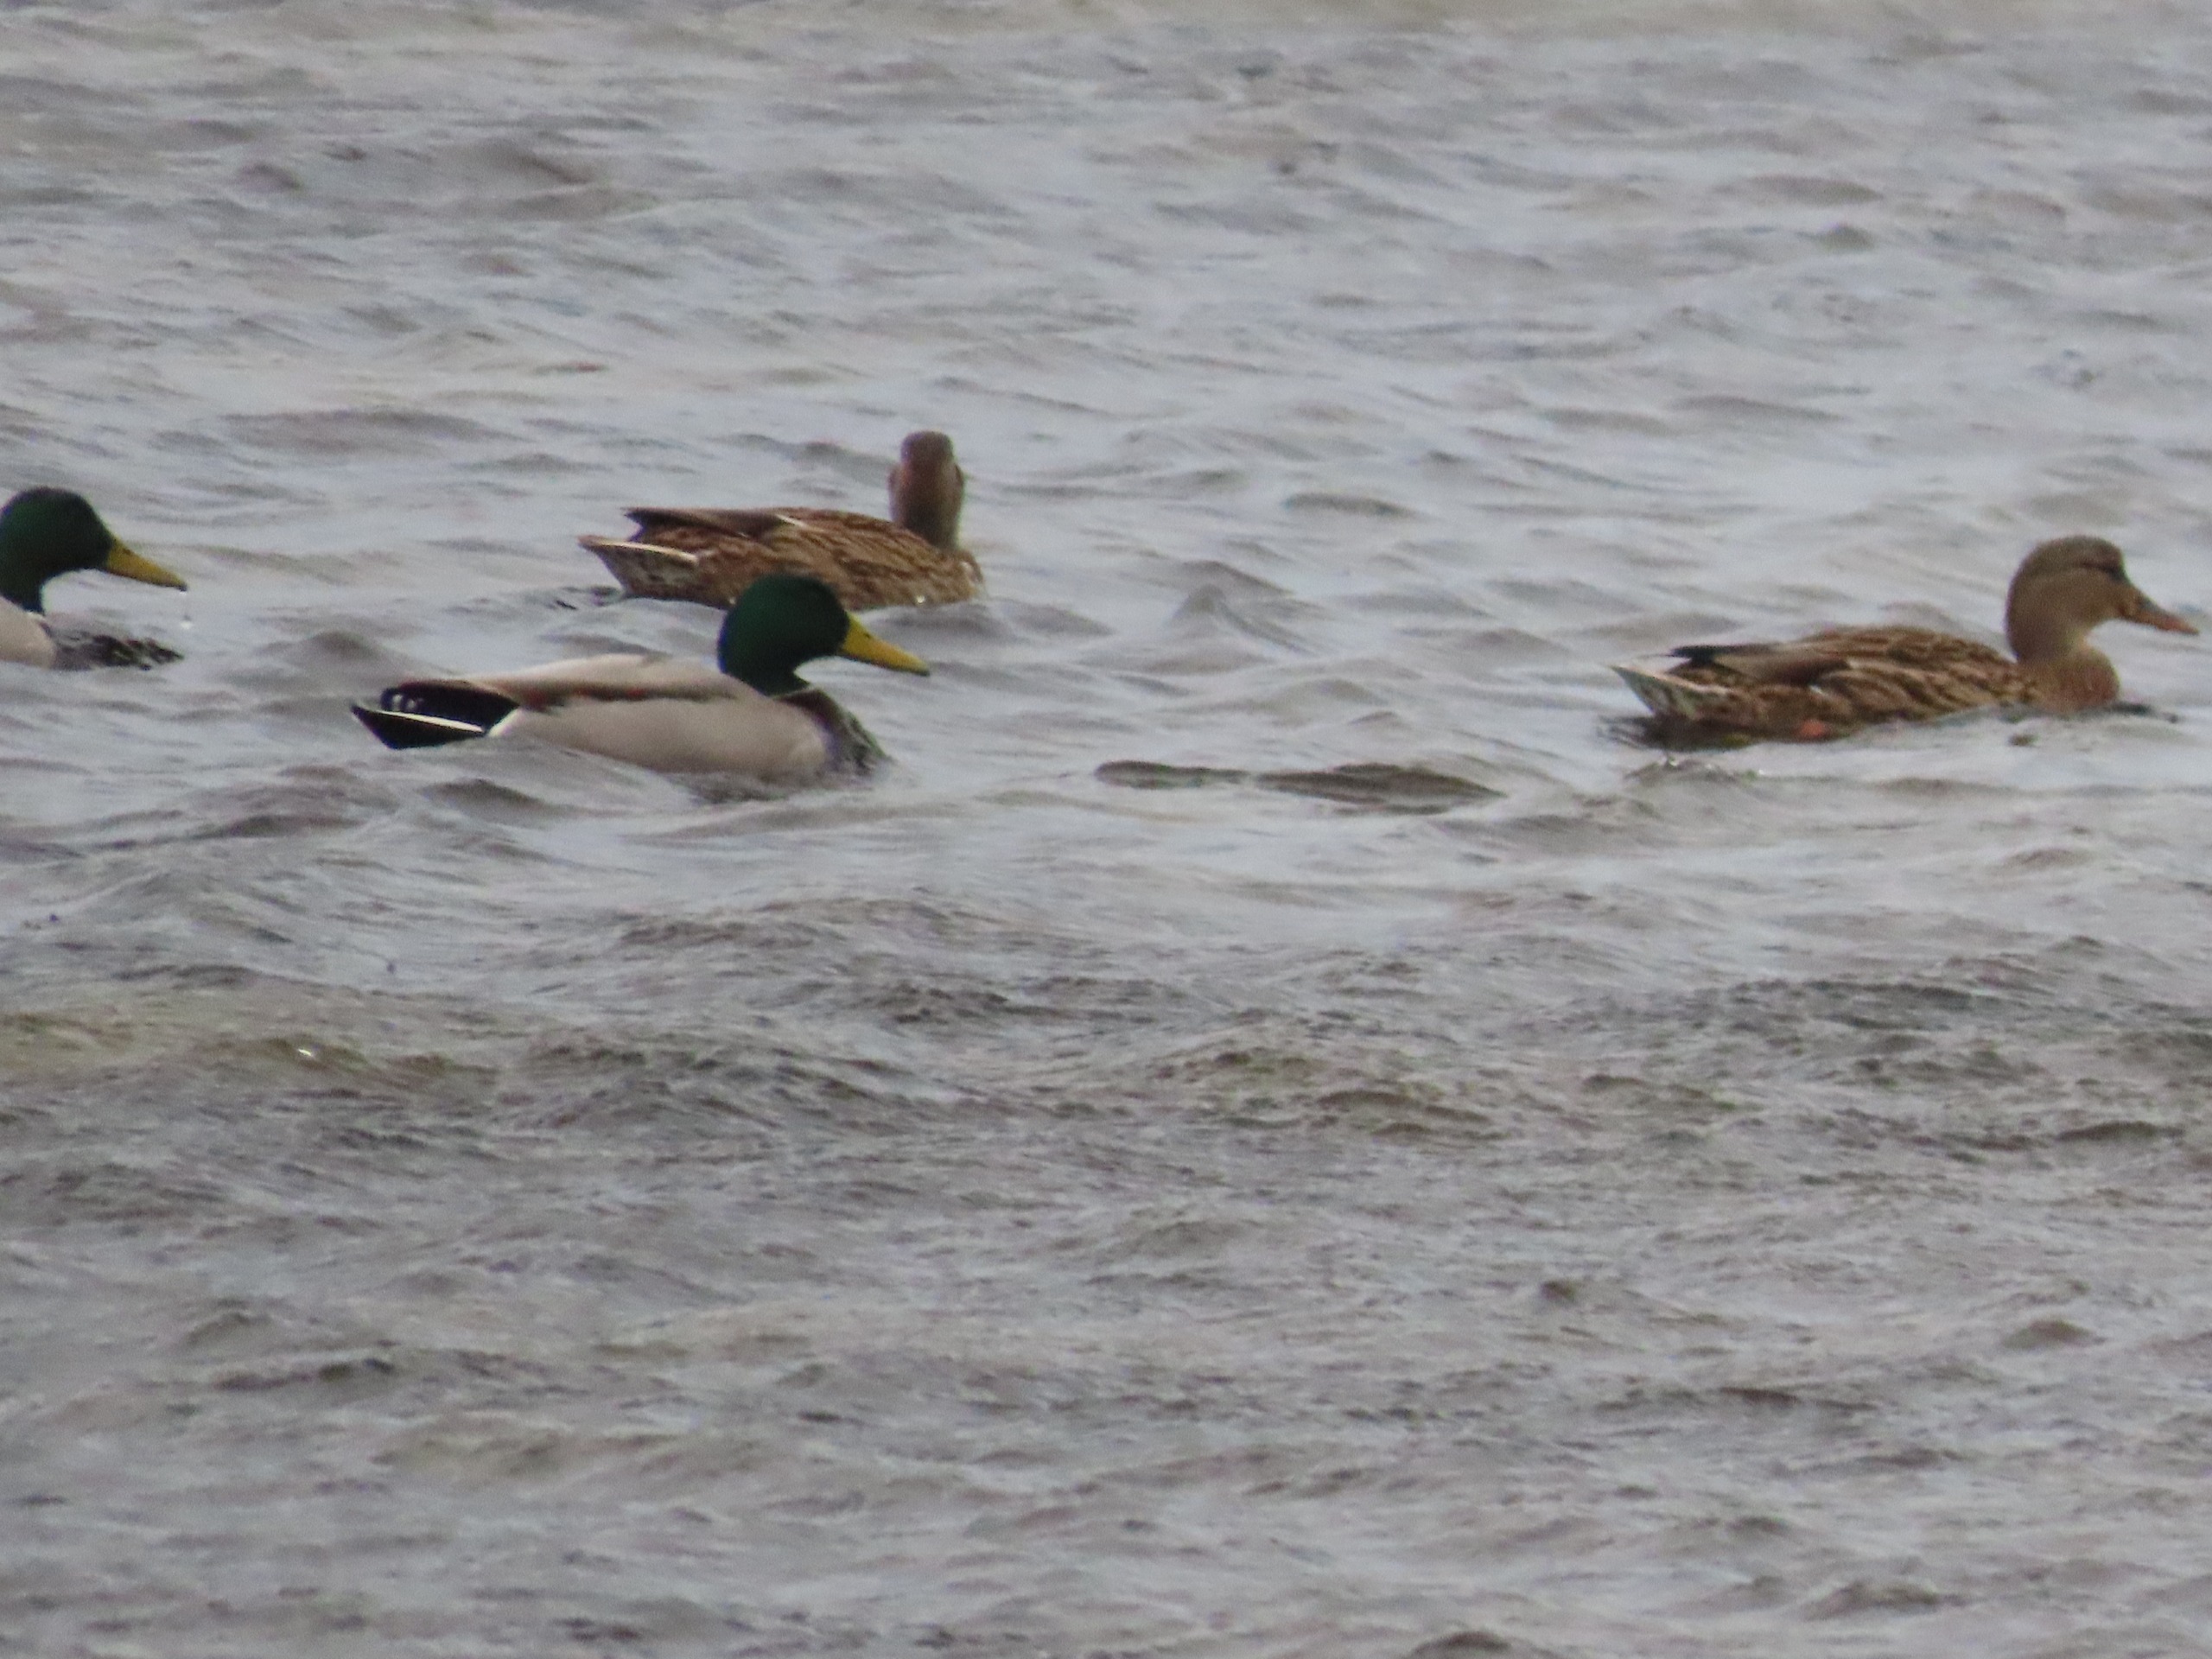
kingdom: Animalia
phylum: Chordata
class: Aves
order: Anseriformes
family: Anatidae
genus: Anas
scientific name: Anas platyrhynchos
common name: Gråand
